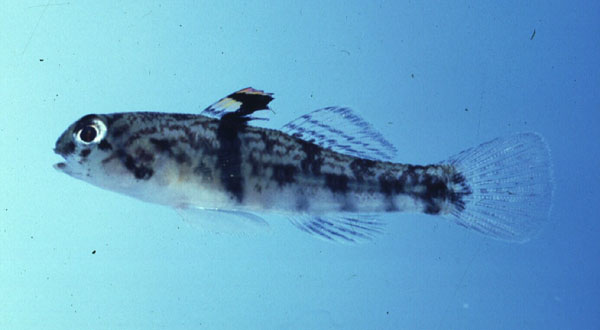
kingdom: Animalia
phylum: Chordata
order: Perciformes
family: Gobiidae
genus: Redigobius
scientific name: Redigobius balteatus
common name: Rhino-horn goby
